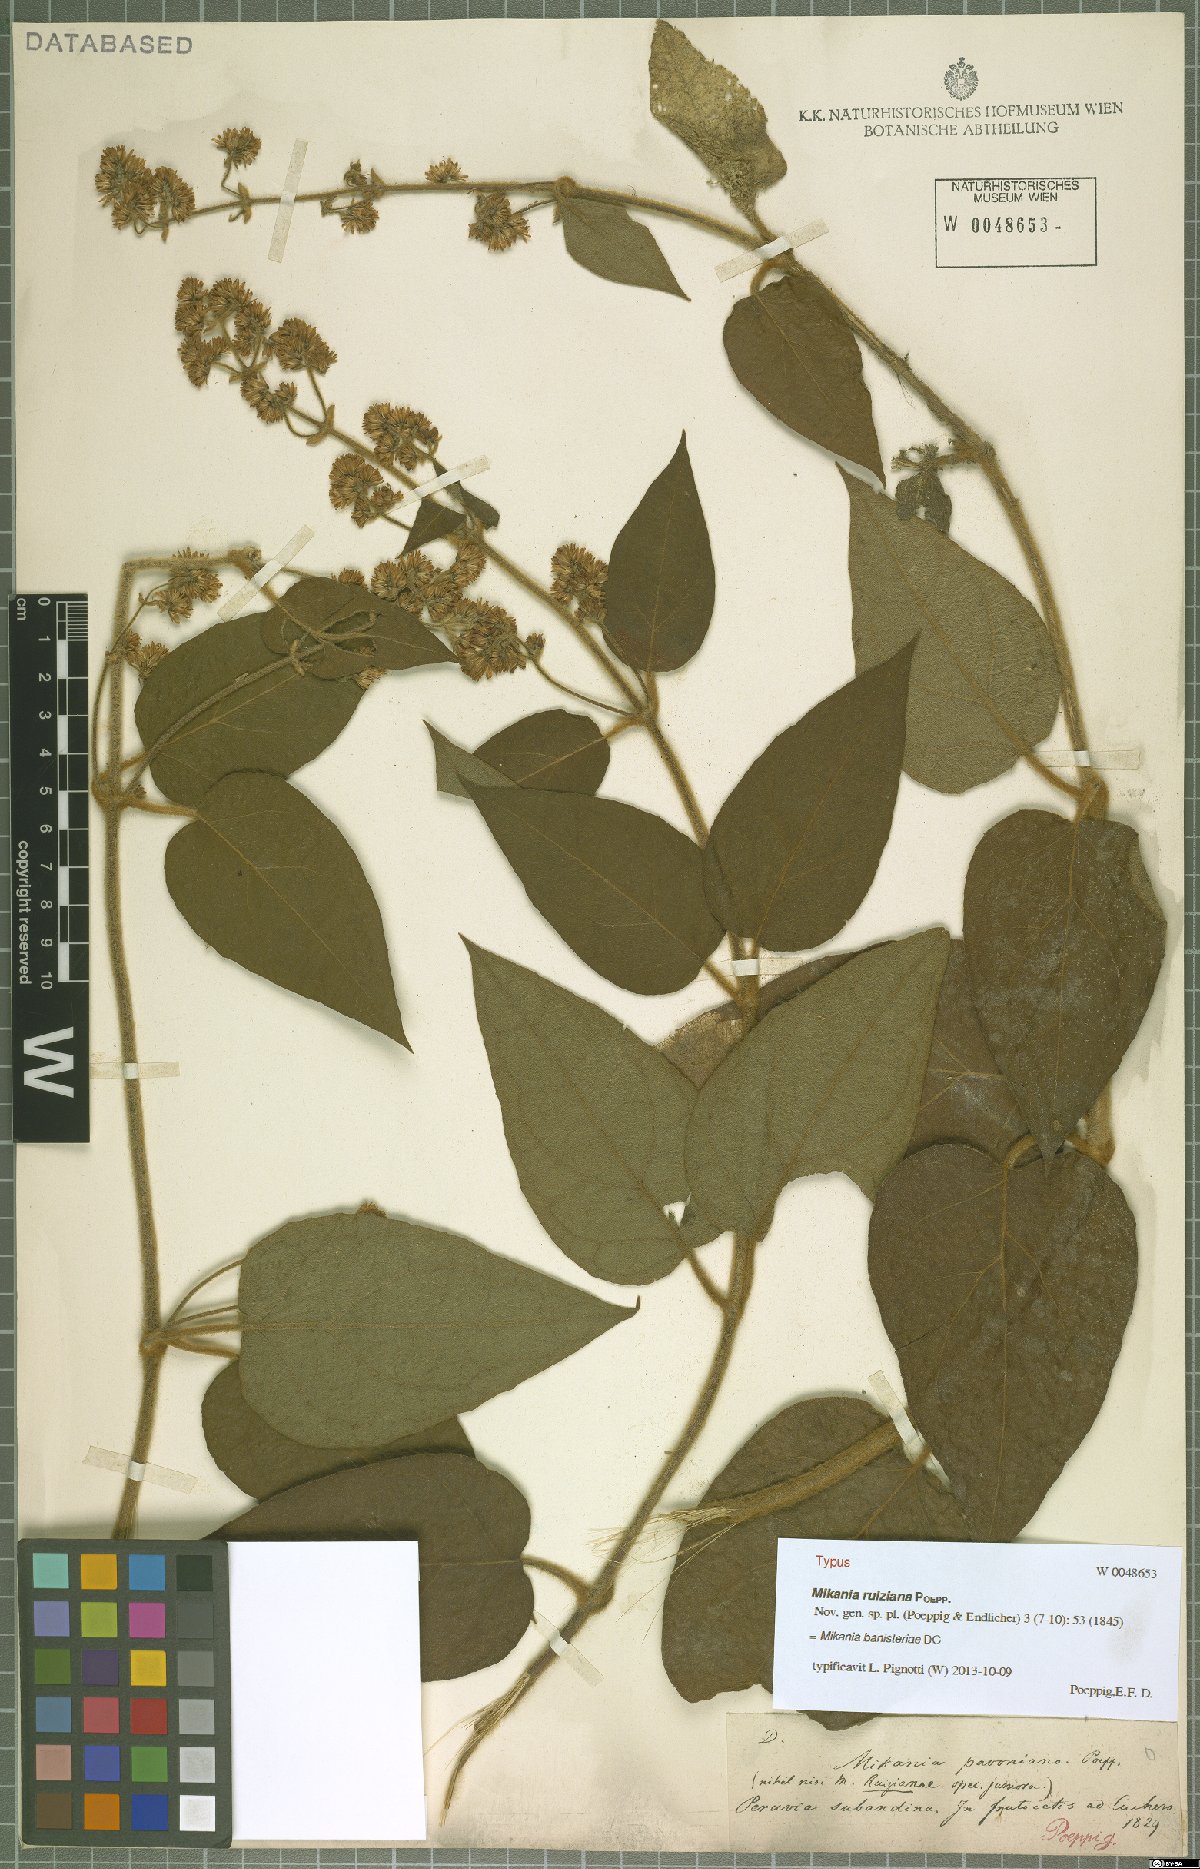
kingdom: Plantae
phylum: Tracheophyta
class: Magnoliopsida
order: Asterales
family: Asteraceae
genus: Mikania
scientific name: Mikania banisteriae
